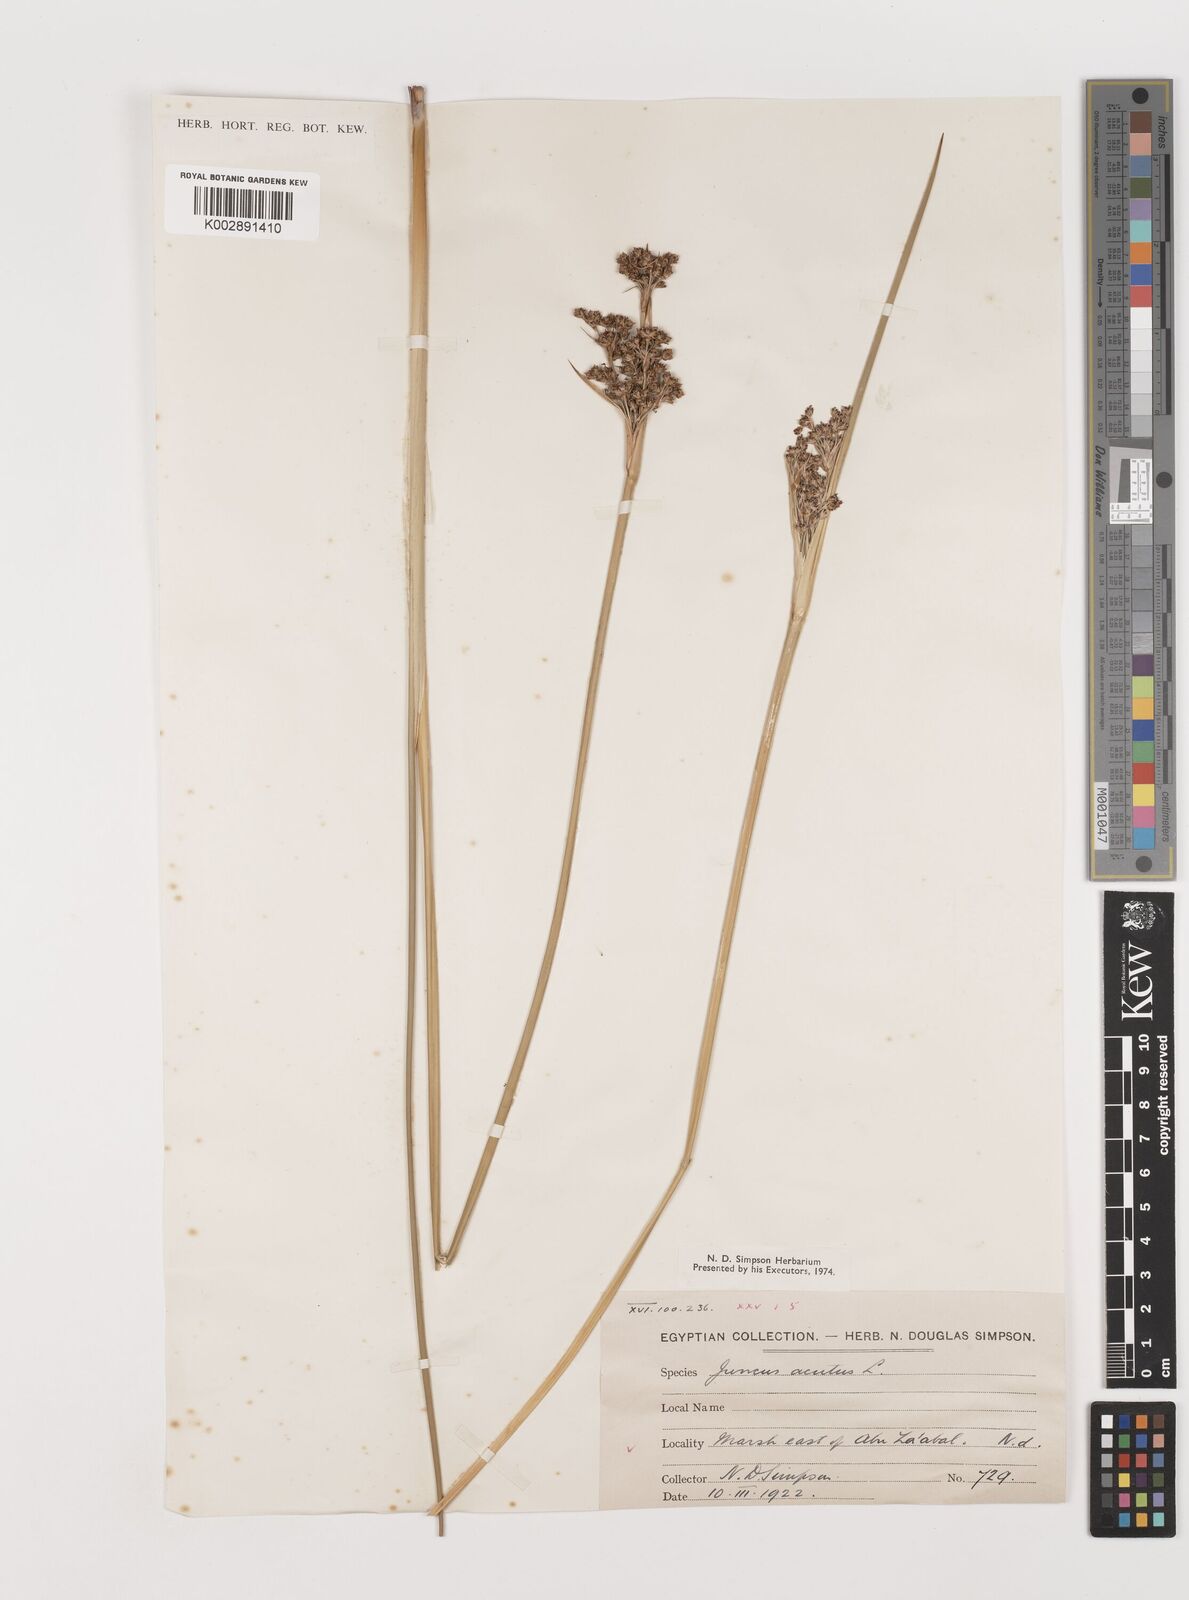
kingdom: Plantae
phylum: Tracheophyta
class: Liliopsida
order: Poales
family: Juncaceae
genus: Juncus
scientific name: Juncus acutus
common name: Sharp rush
